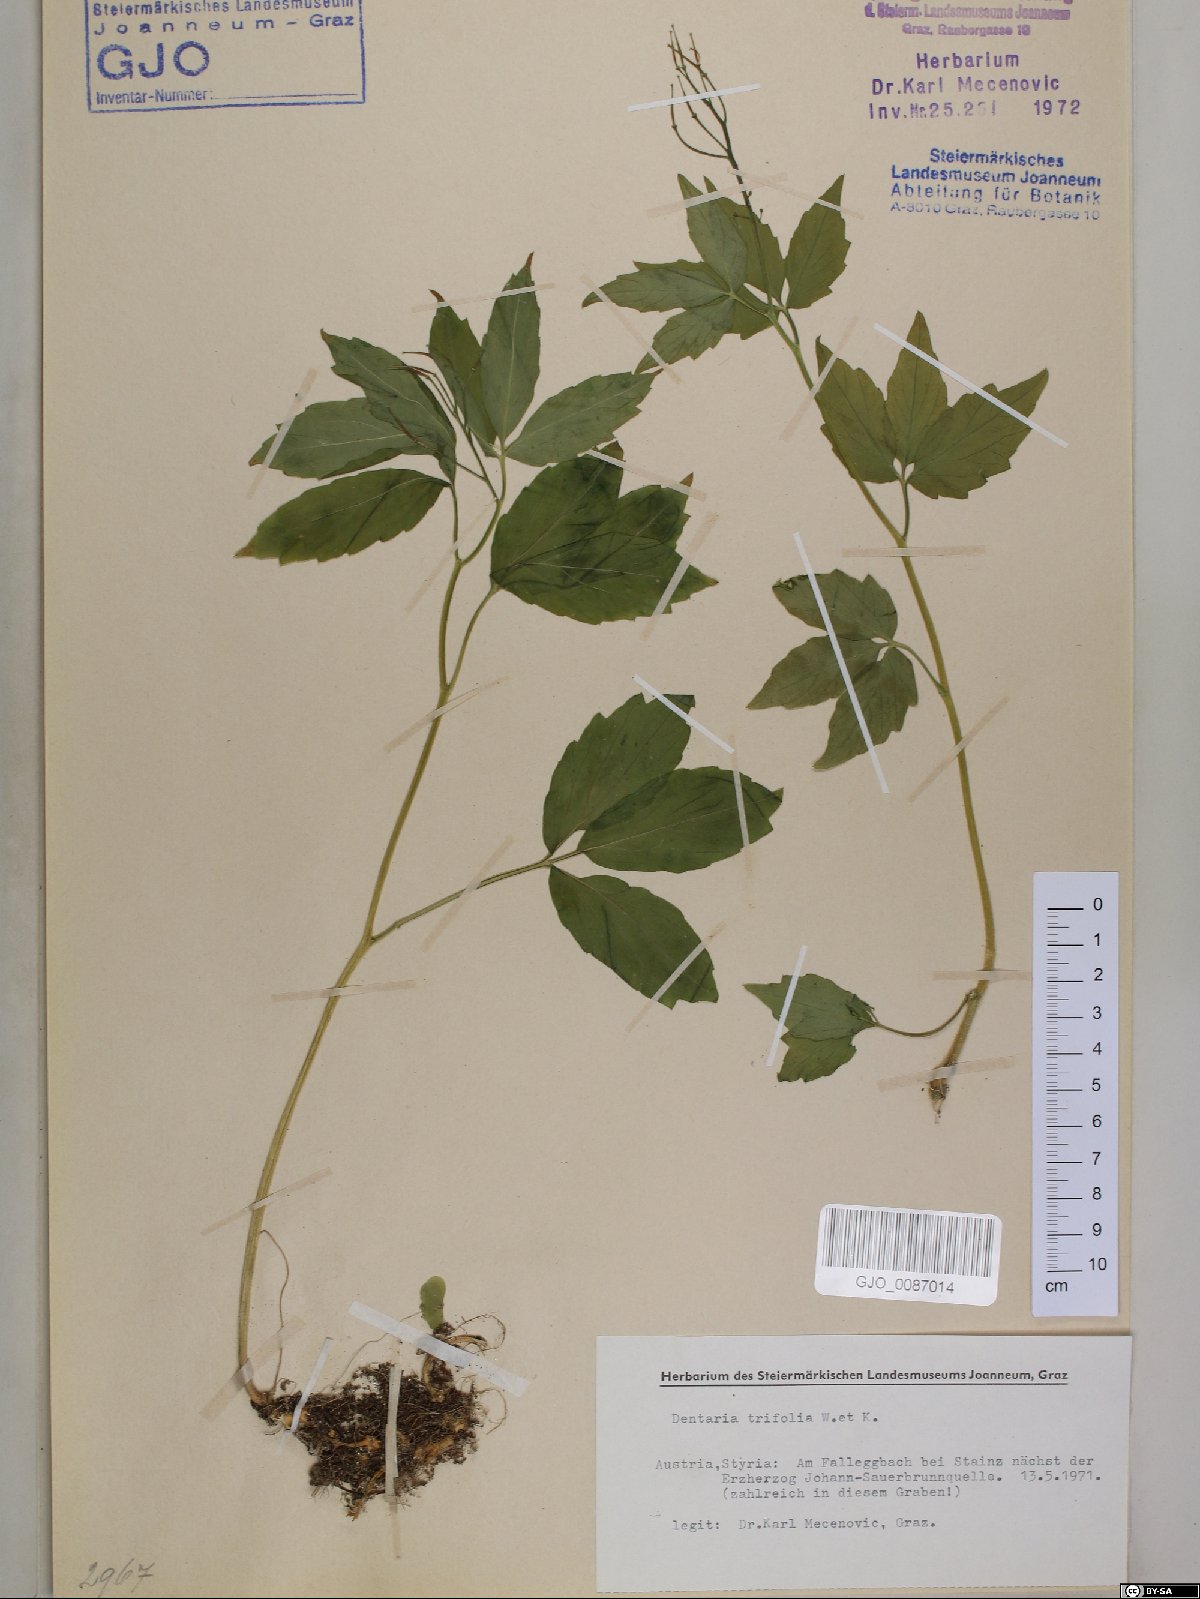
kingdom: Plantae
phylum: Tracheophyta
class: Magnoliopsida
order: Brassicales
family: Brassicaceae
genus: Cardamine
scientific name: Cardamine waldsteinii
